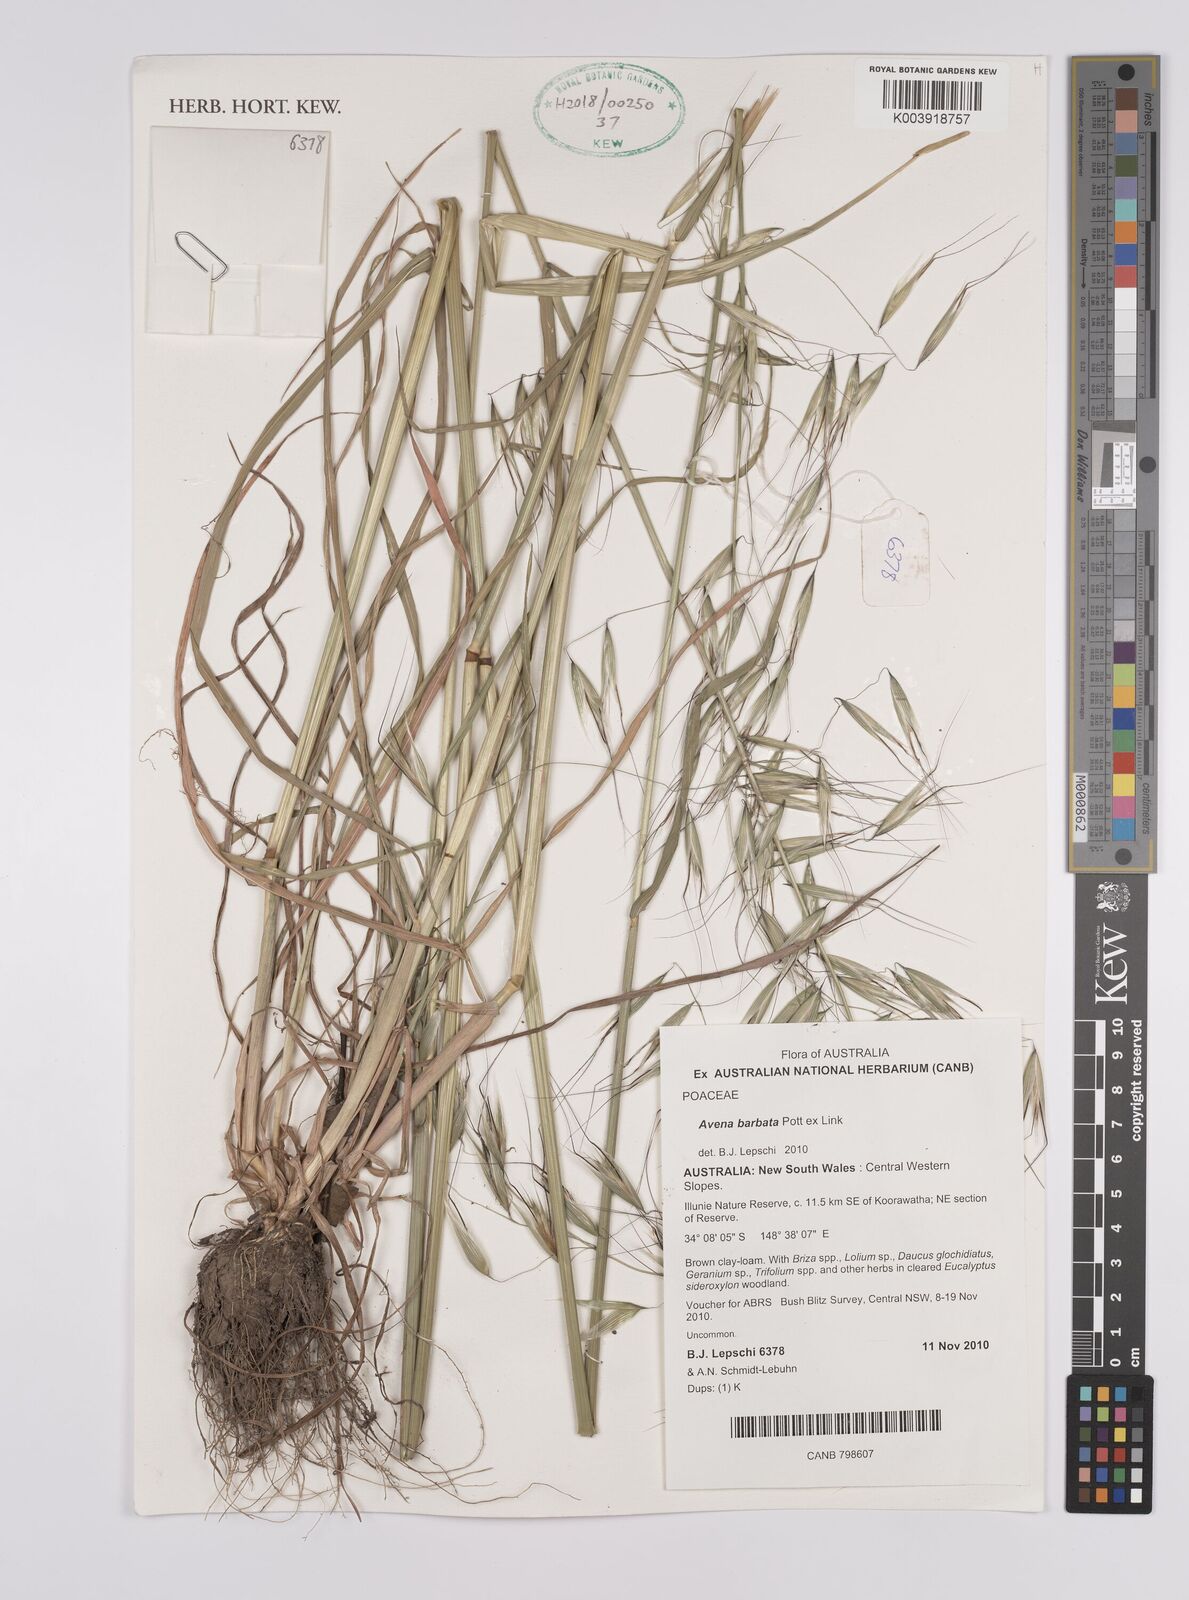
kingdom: Plantae
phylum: Tracheophyta
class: Liliopsida
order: Poales
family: Poaceae
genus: Avena
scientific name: Avena
